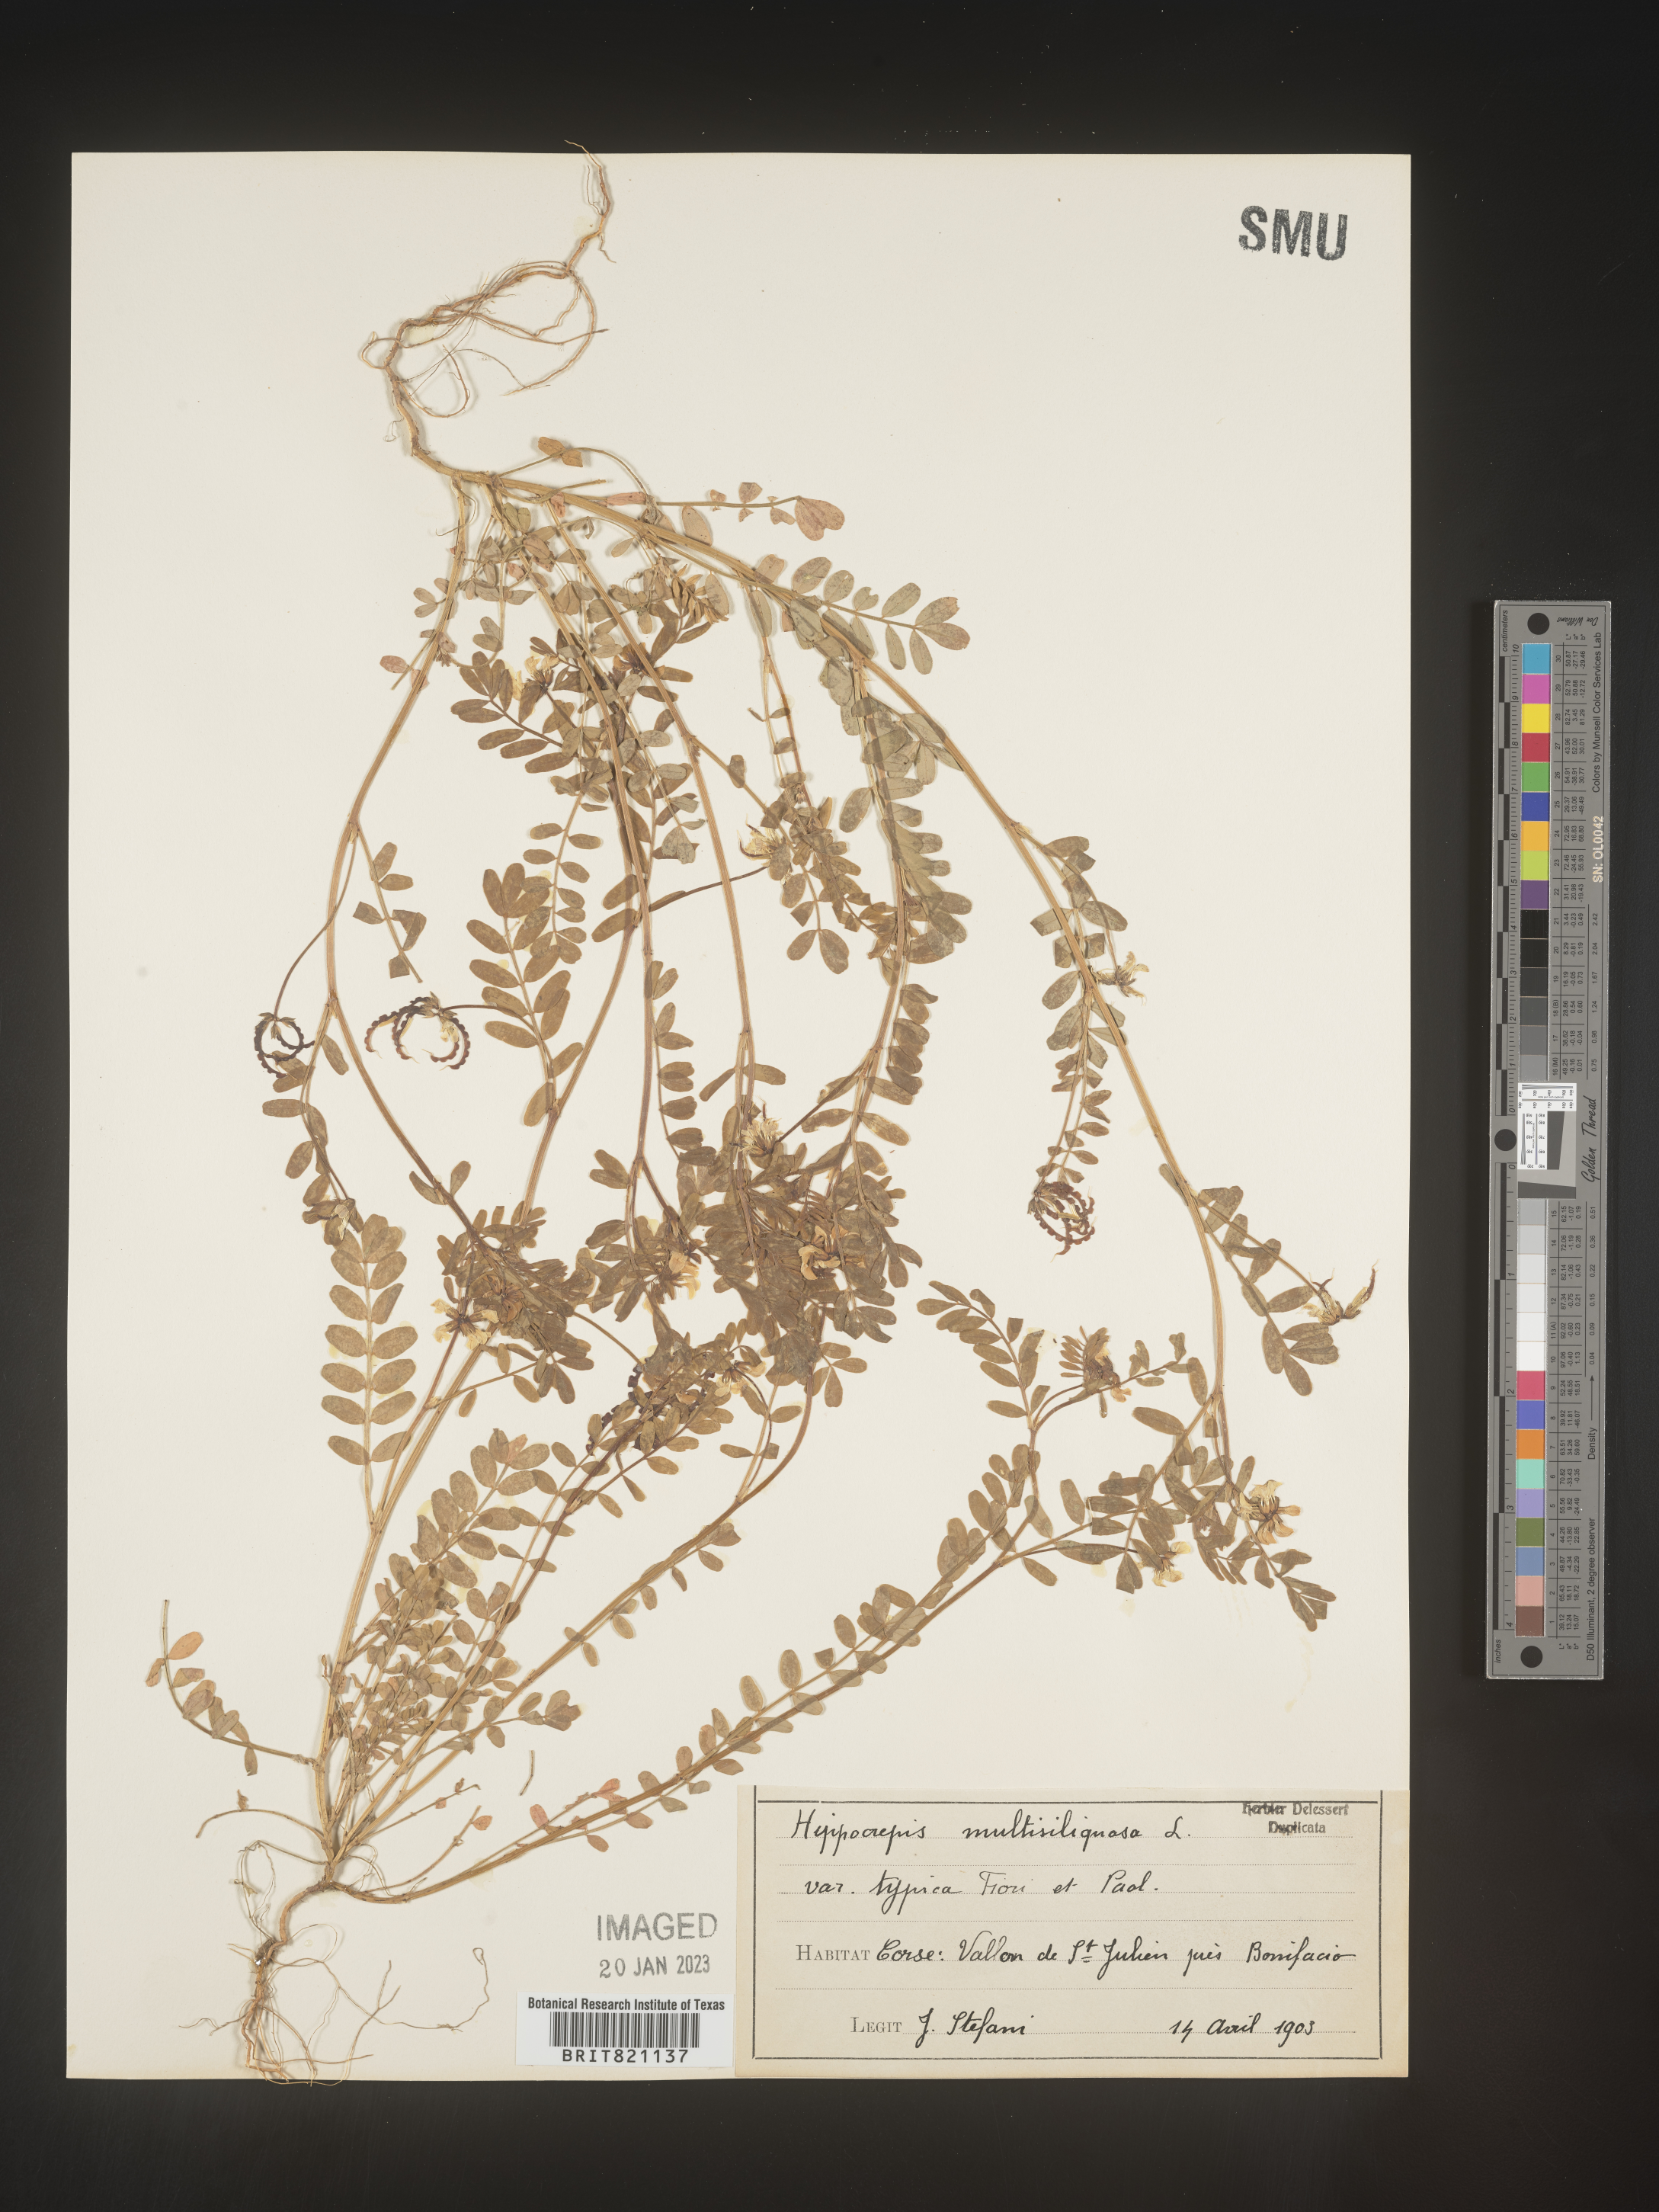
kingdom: Plantae
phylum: Tracheophyta
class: Magnoliopsida
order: Fabales
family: Fabaceae
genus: Hippocrepis
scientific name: Hippocrepis
